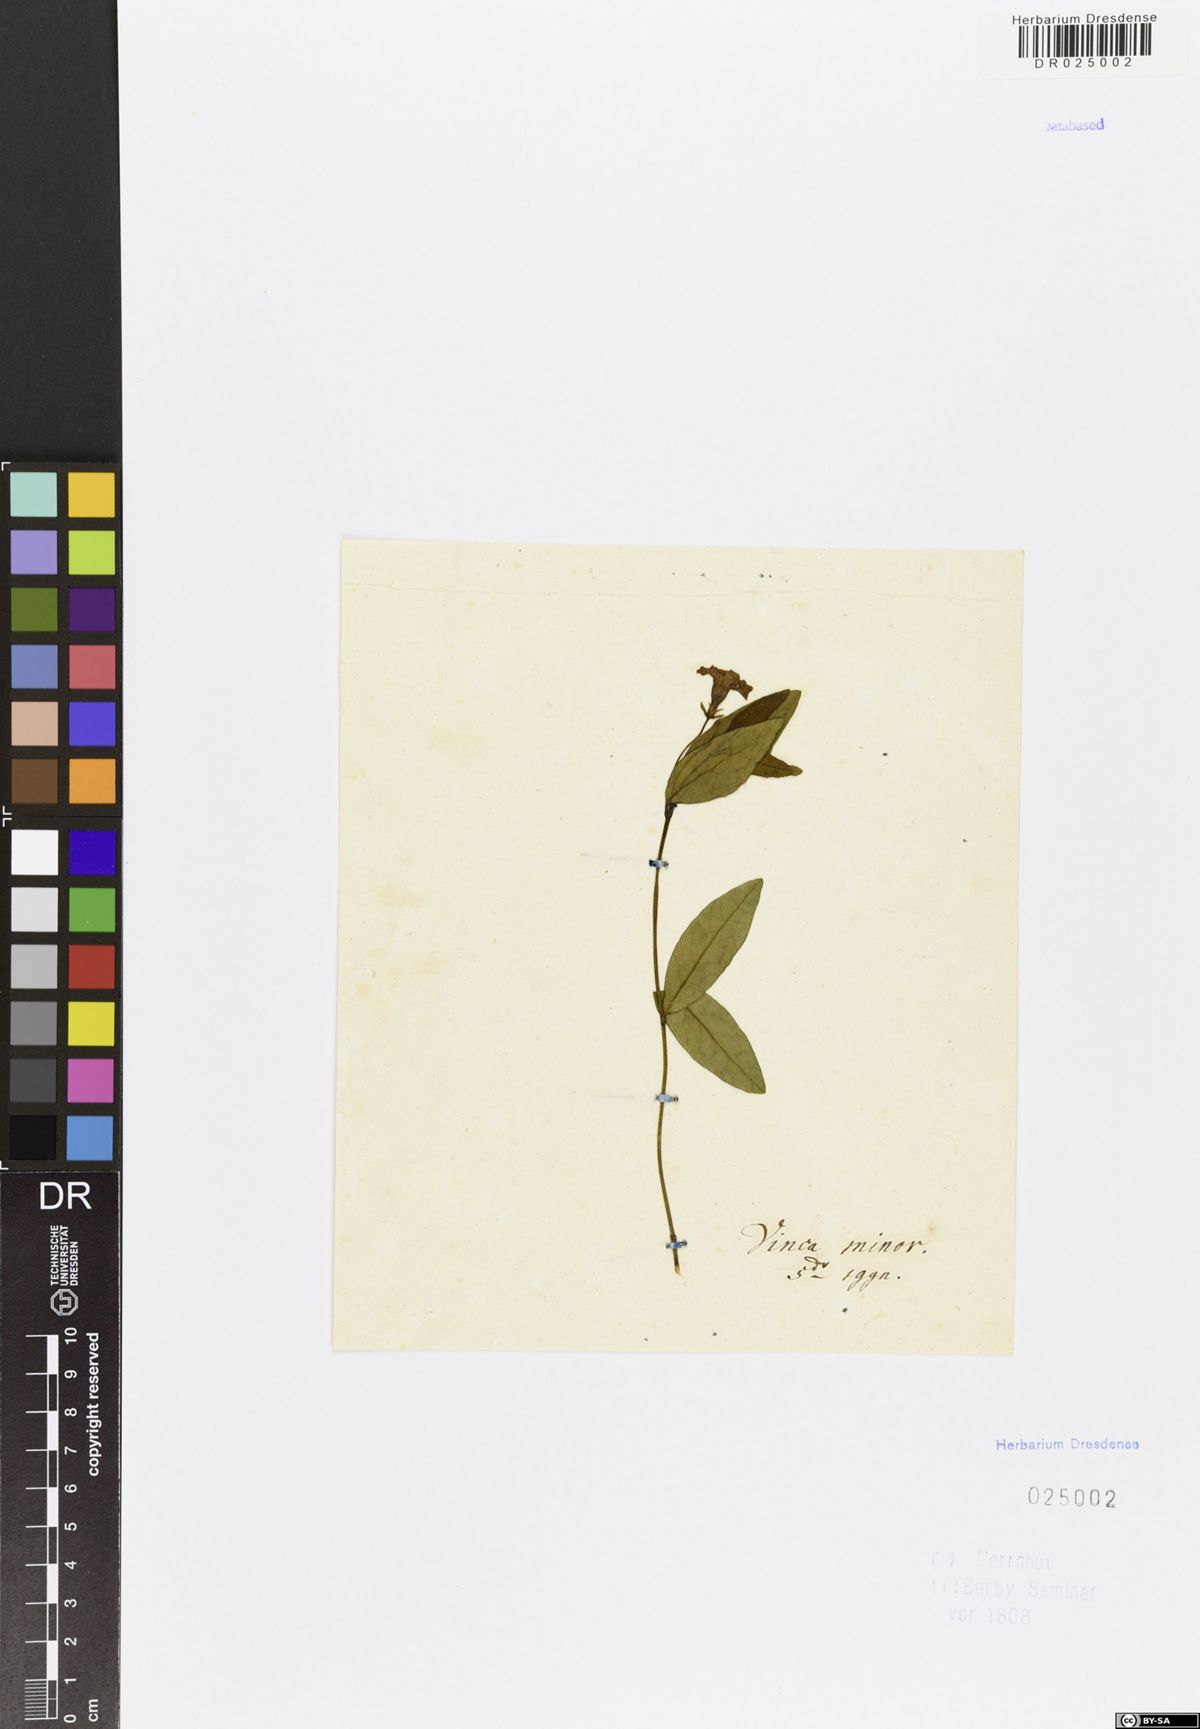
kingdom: Plantae
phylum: Tracheophyta
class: Magnoliopsida
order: Gentianales
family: Apocynaceae
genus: Vinca
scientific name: Vinca minor
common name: Lesser periwinkle
